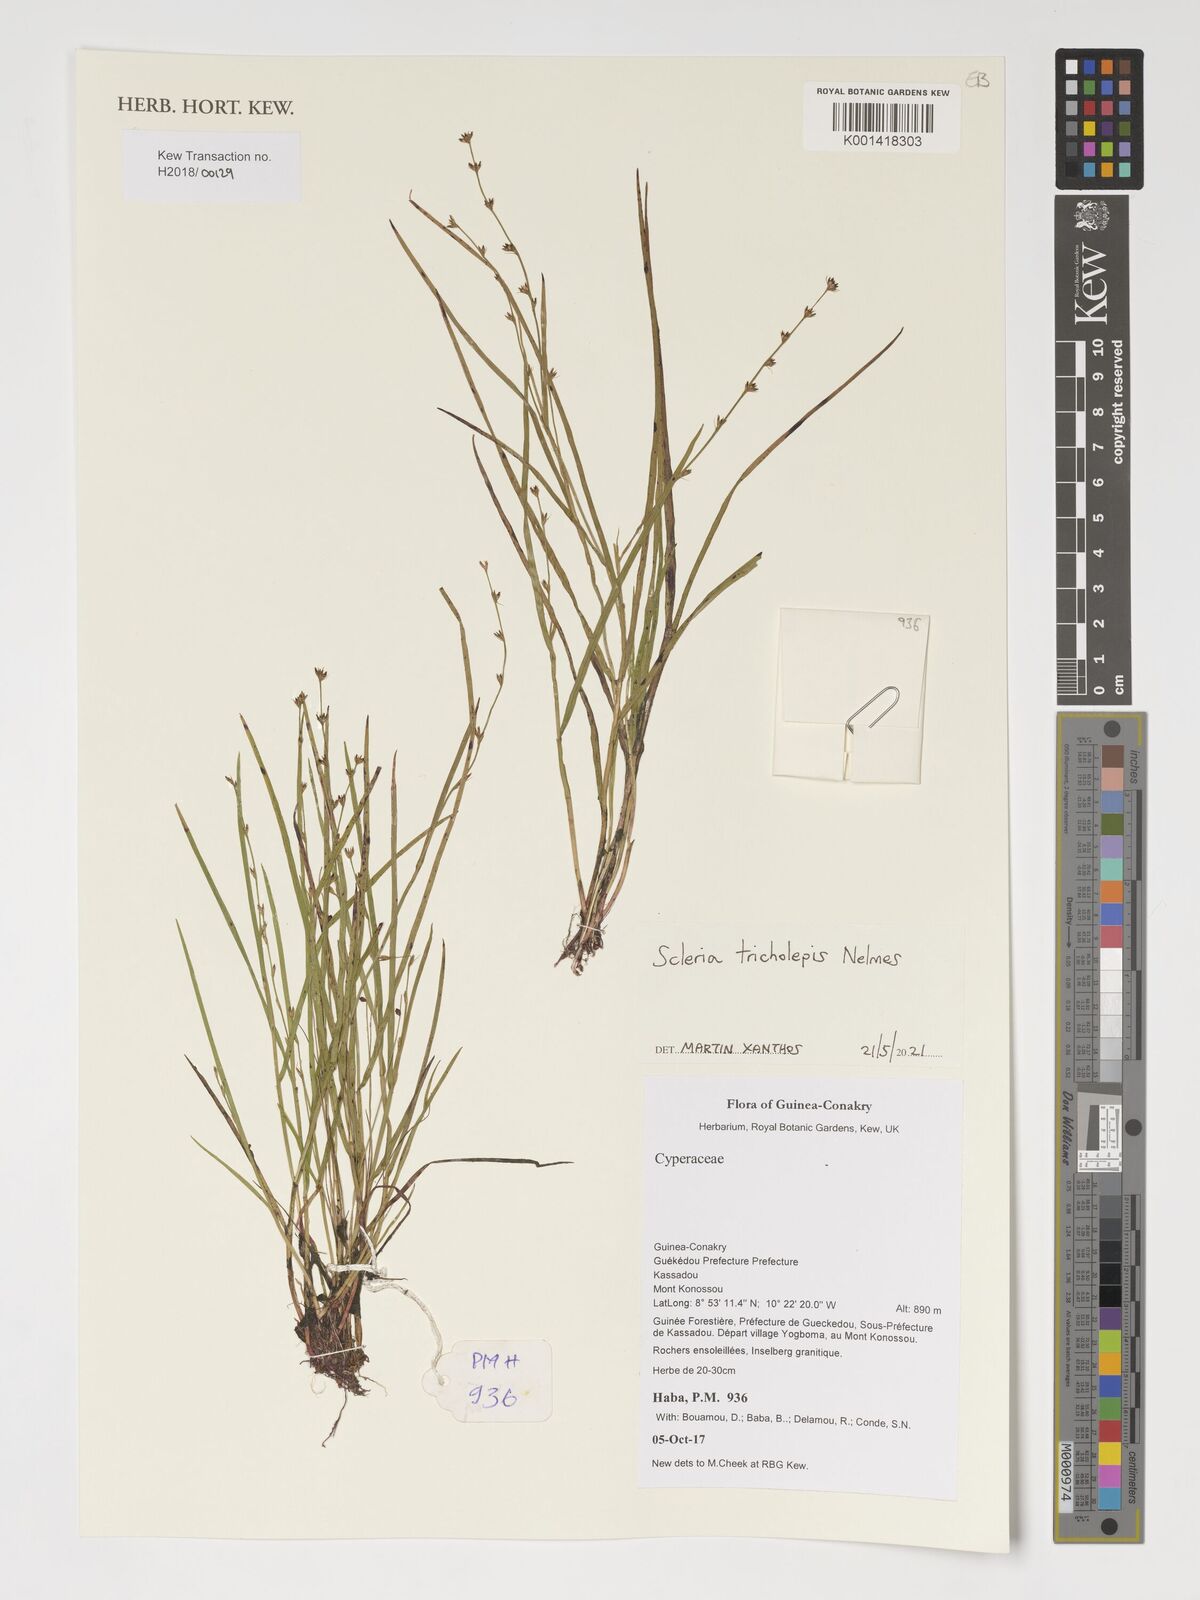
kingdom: Plantae
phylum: Tracheophyta
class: Liliopsida
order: Poales
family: Cyperaceae
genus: Scleria
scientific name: Scleria tricholepis
